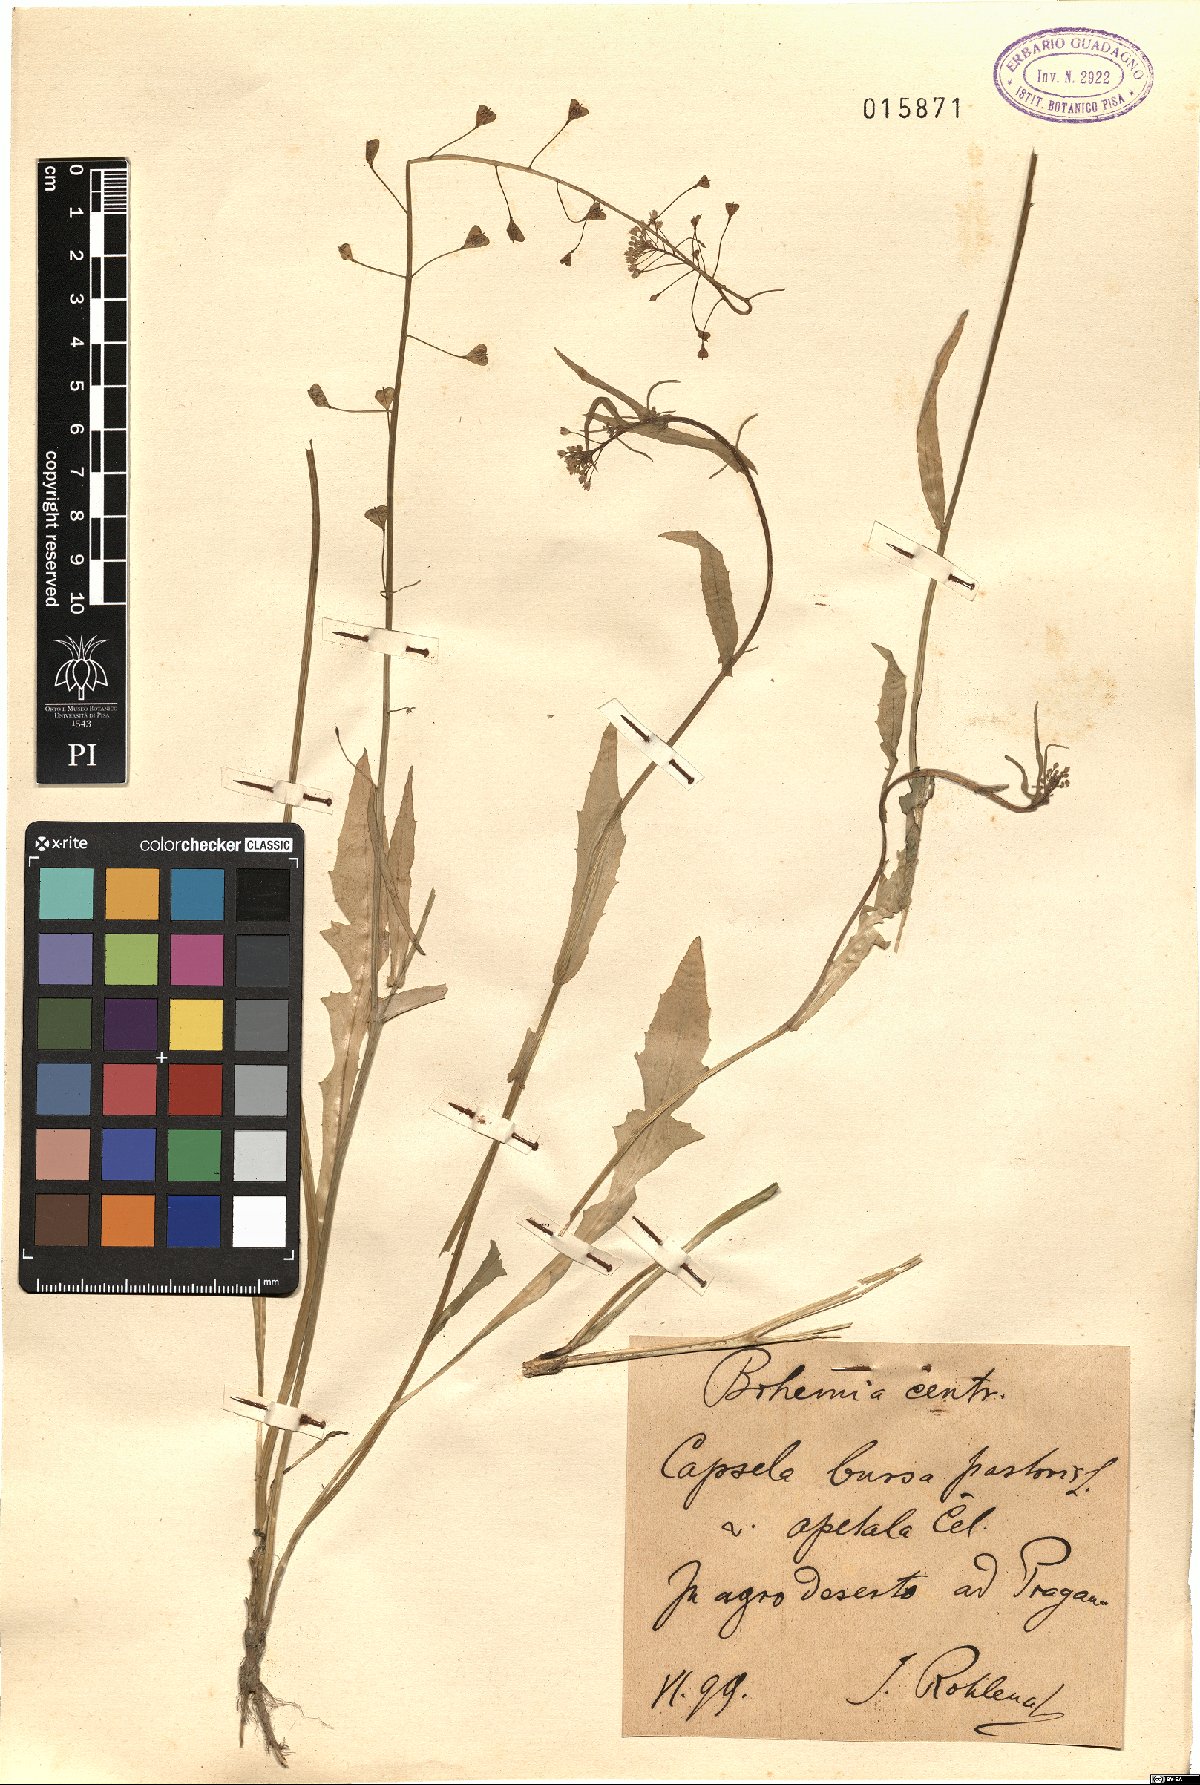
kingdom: Plantae
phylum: Tracheophyta
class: Magnoliopsida
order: Brassicales
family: Brassicaceae
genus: Capsella
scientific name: Capsella bursa-pastoris
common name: Shepherd's purse
